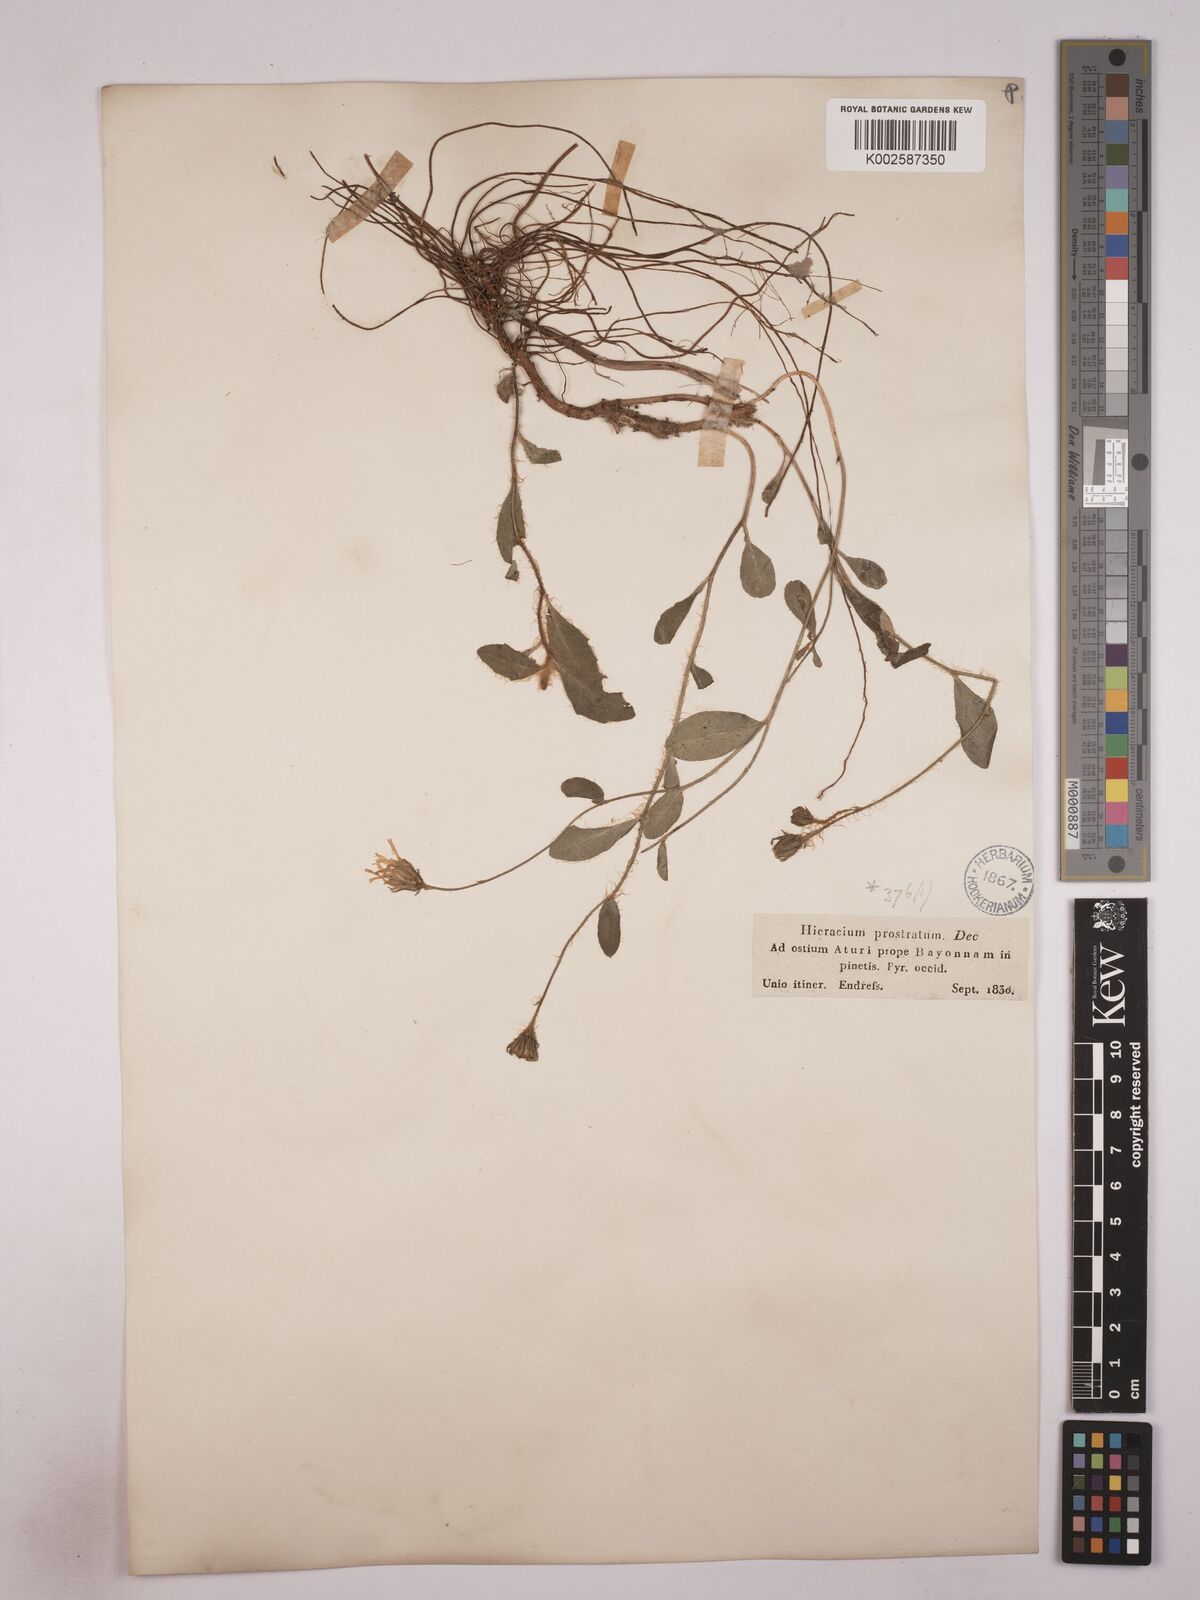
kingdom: Plantae
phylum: Tracheophyta
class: Magnoliopsida
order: Asterales
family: Asteraceae
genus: Hieracium
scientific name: Hieracium prostratum
